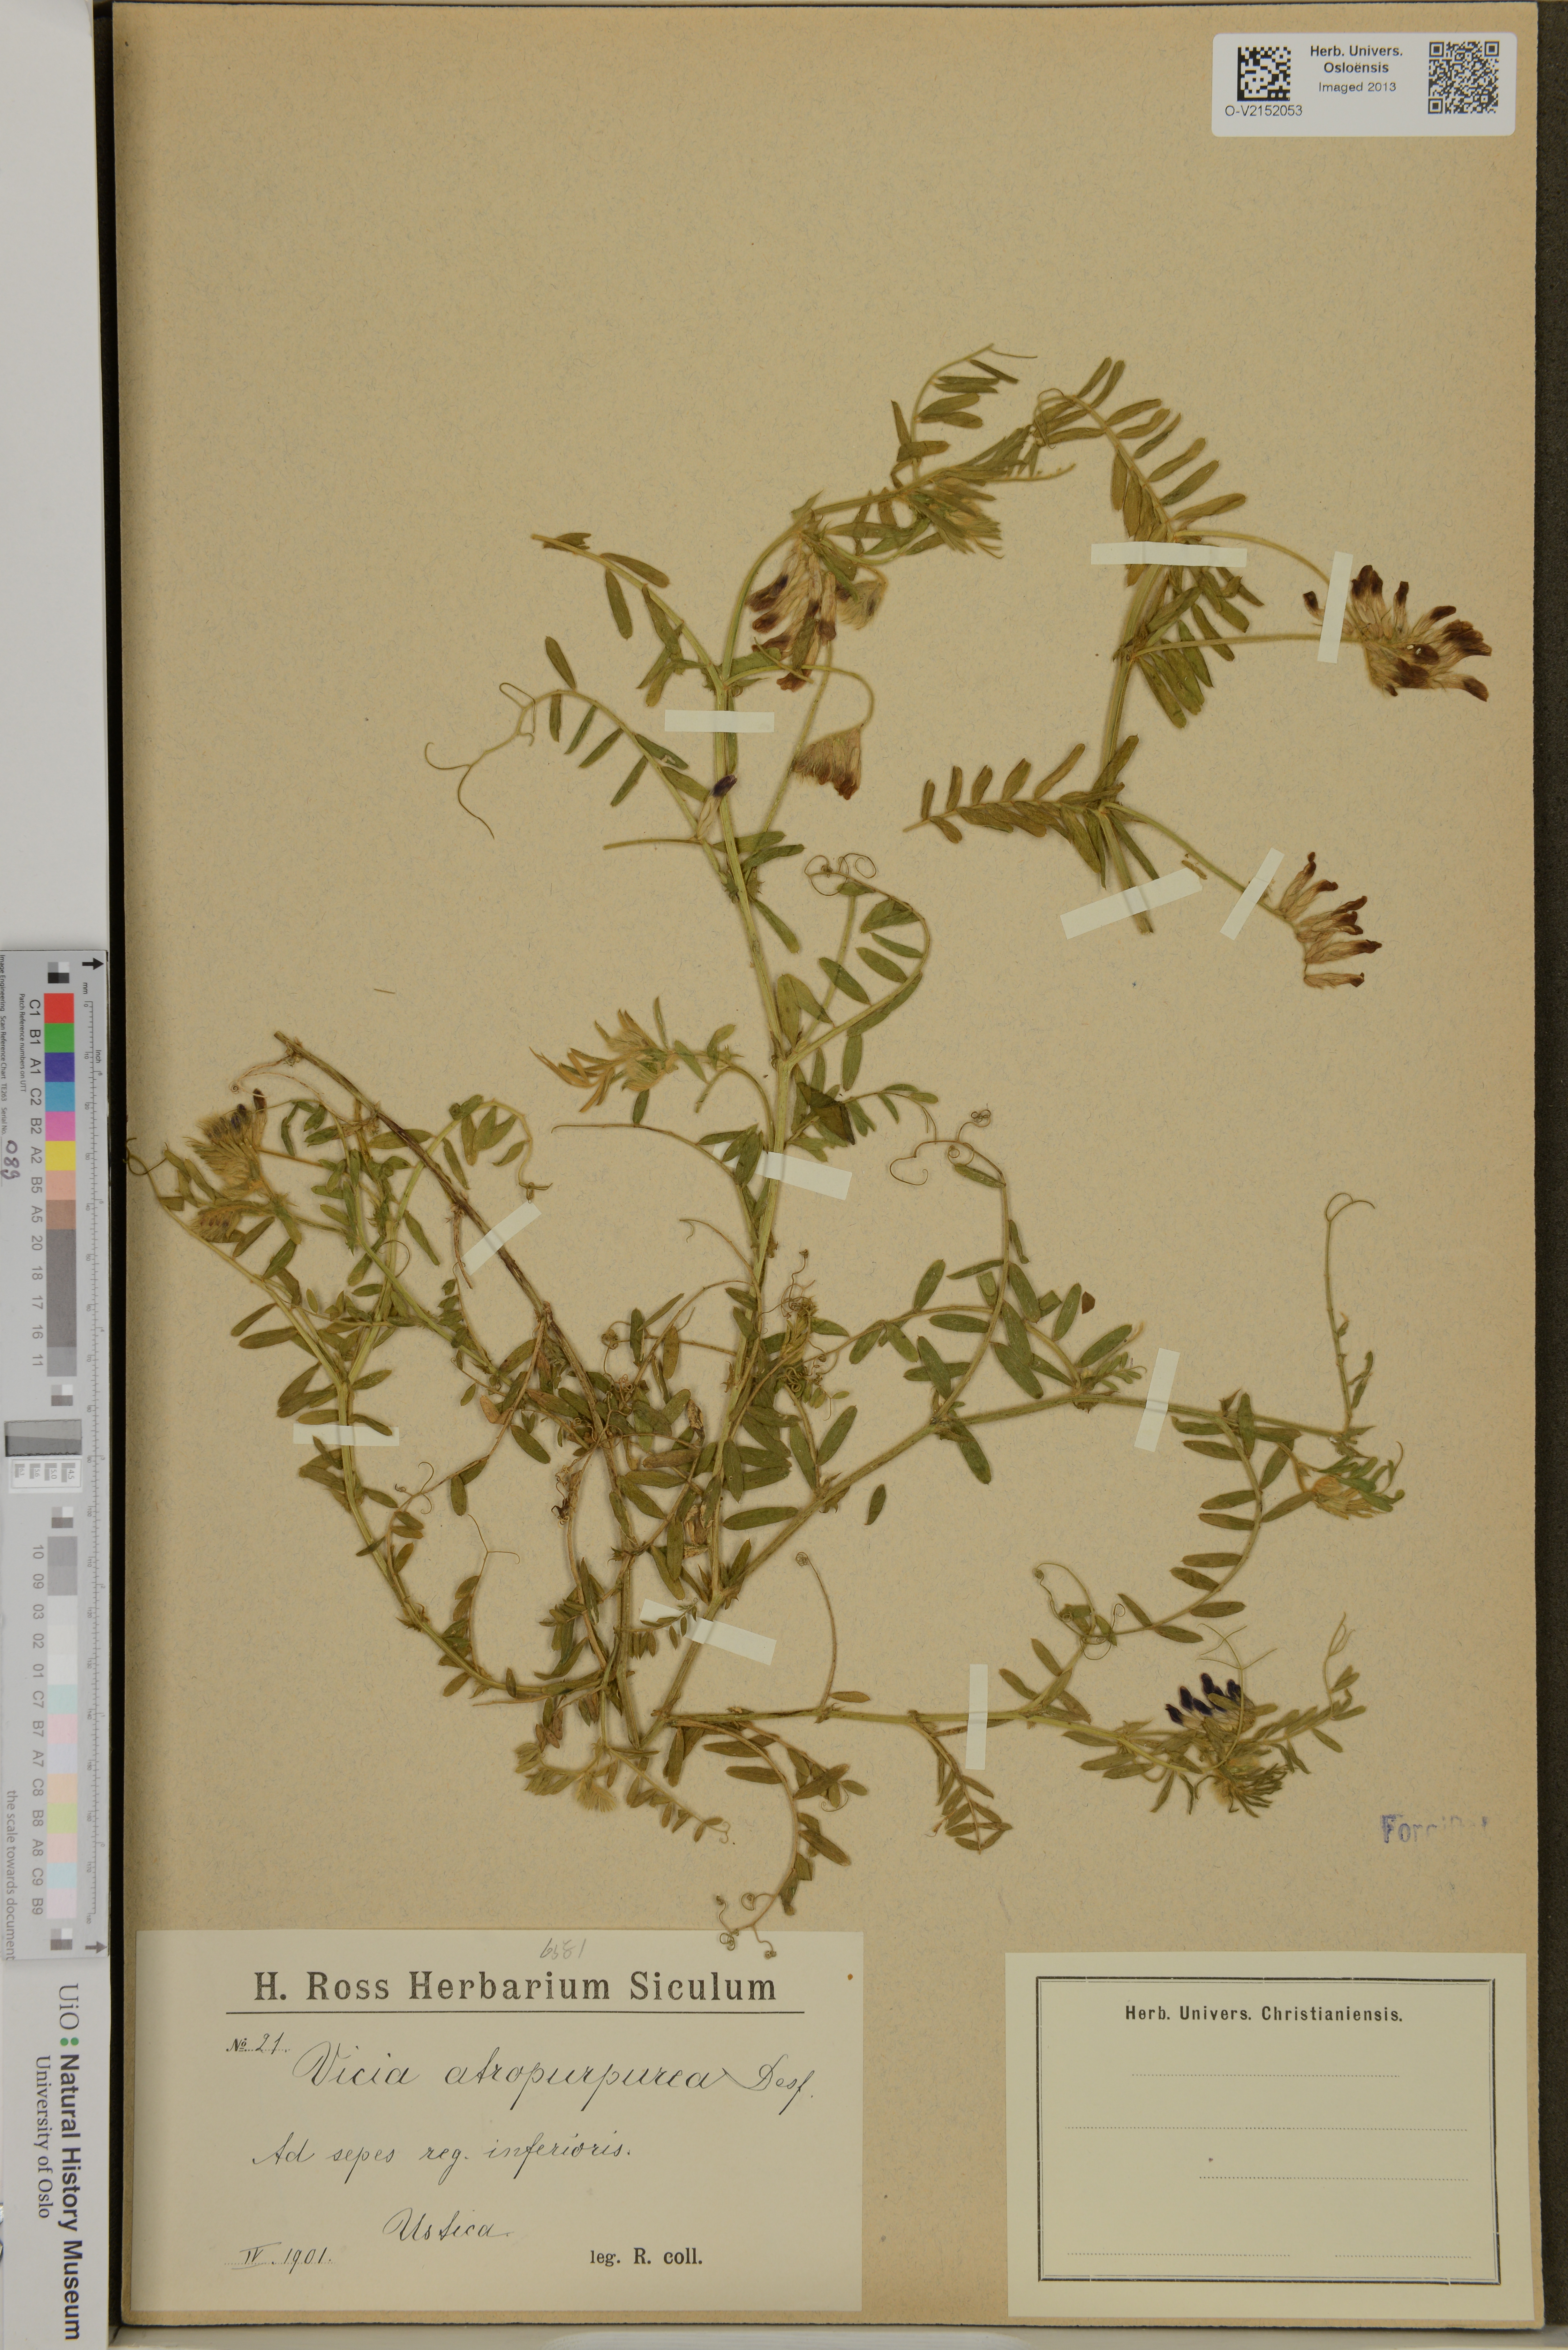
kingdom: Plantae
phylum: Tracheophyta
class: Magnoliopsida
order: Fabales
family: Fabaceae
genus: Vicia
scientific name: Vicia benghalensis
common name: Purple vetch
